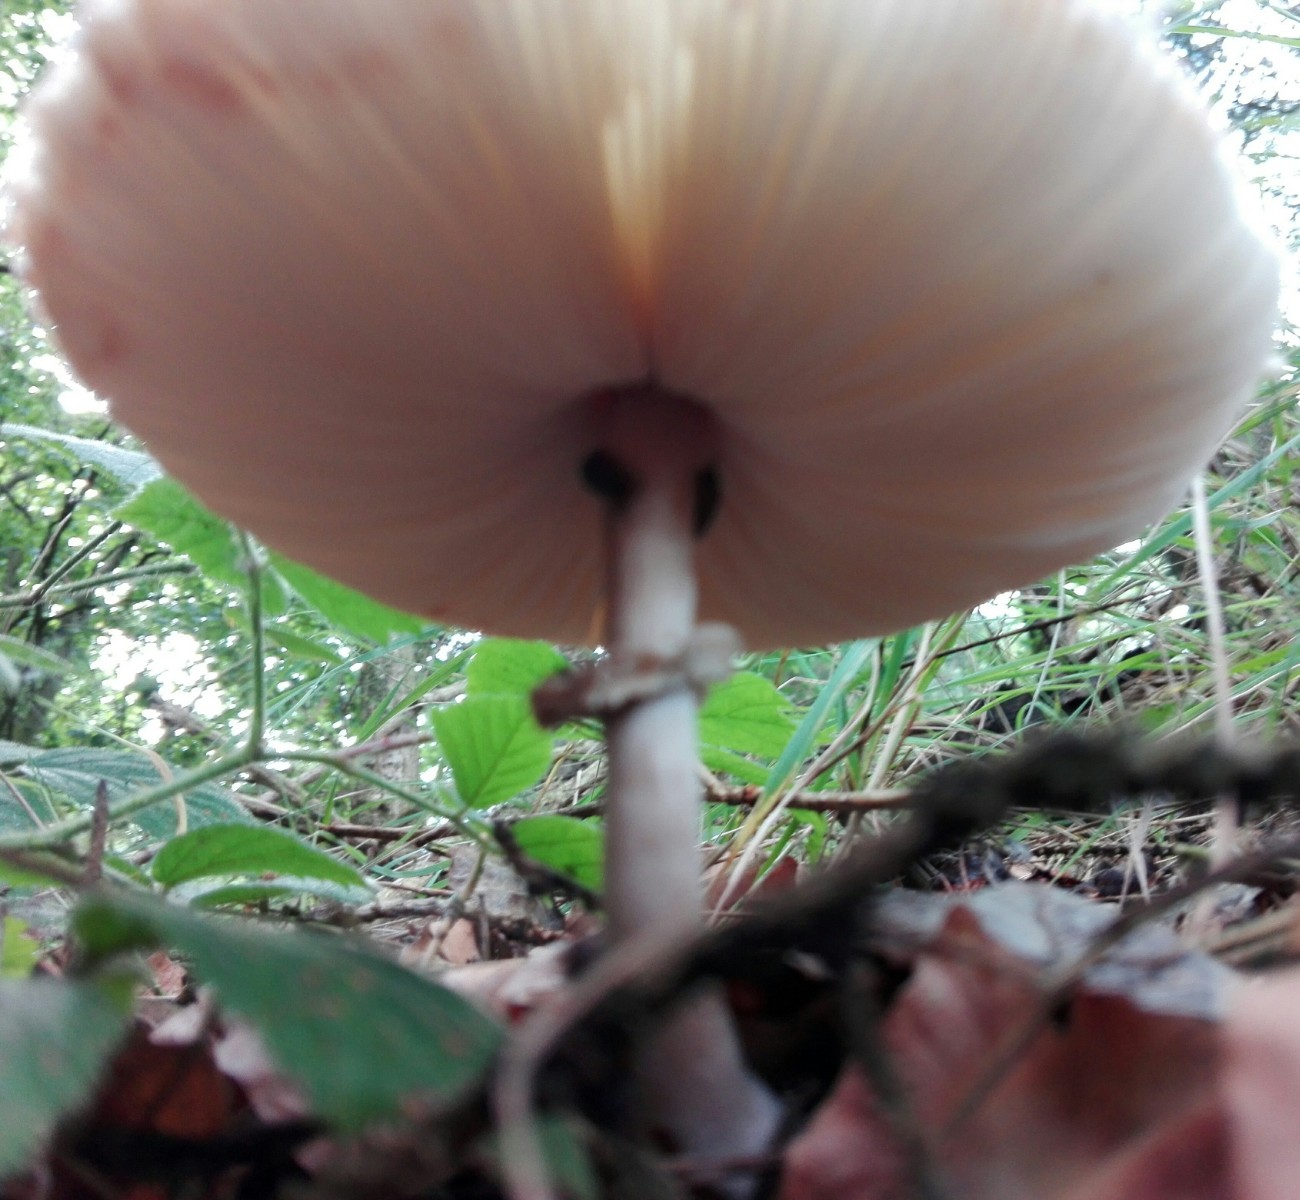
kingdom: Fungi
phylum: Basidiomycota
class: Agaricomycetes
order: Agaricales
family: Agaricaceae
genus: Leucoagaricus
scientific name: Leucoagaricus nympharum
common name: gran-silkehat
